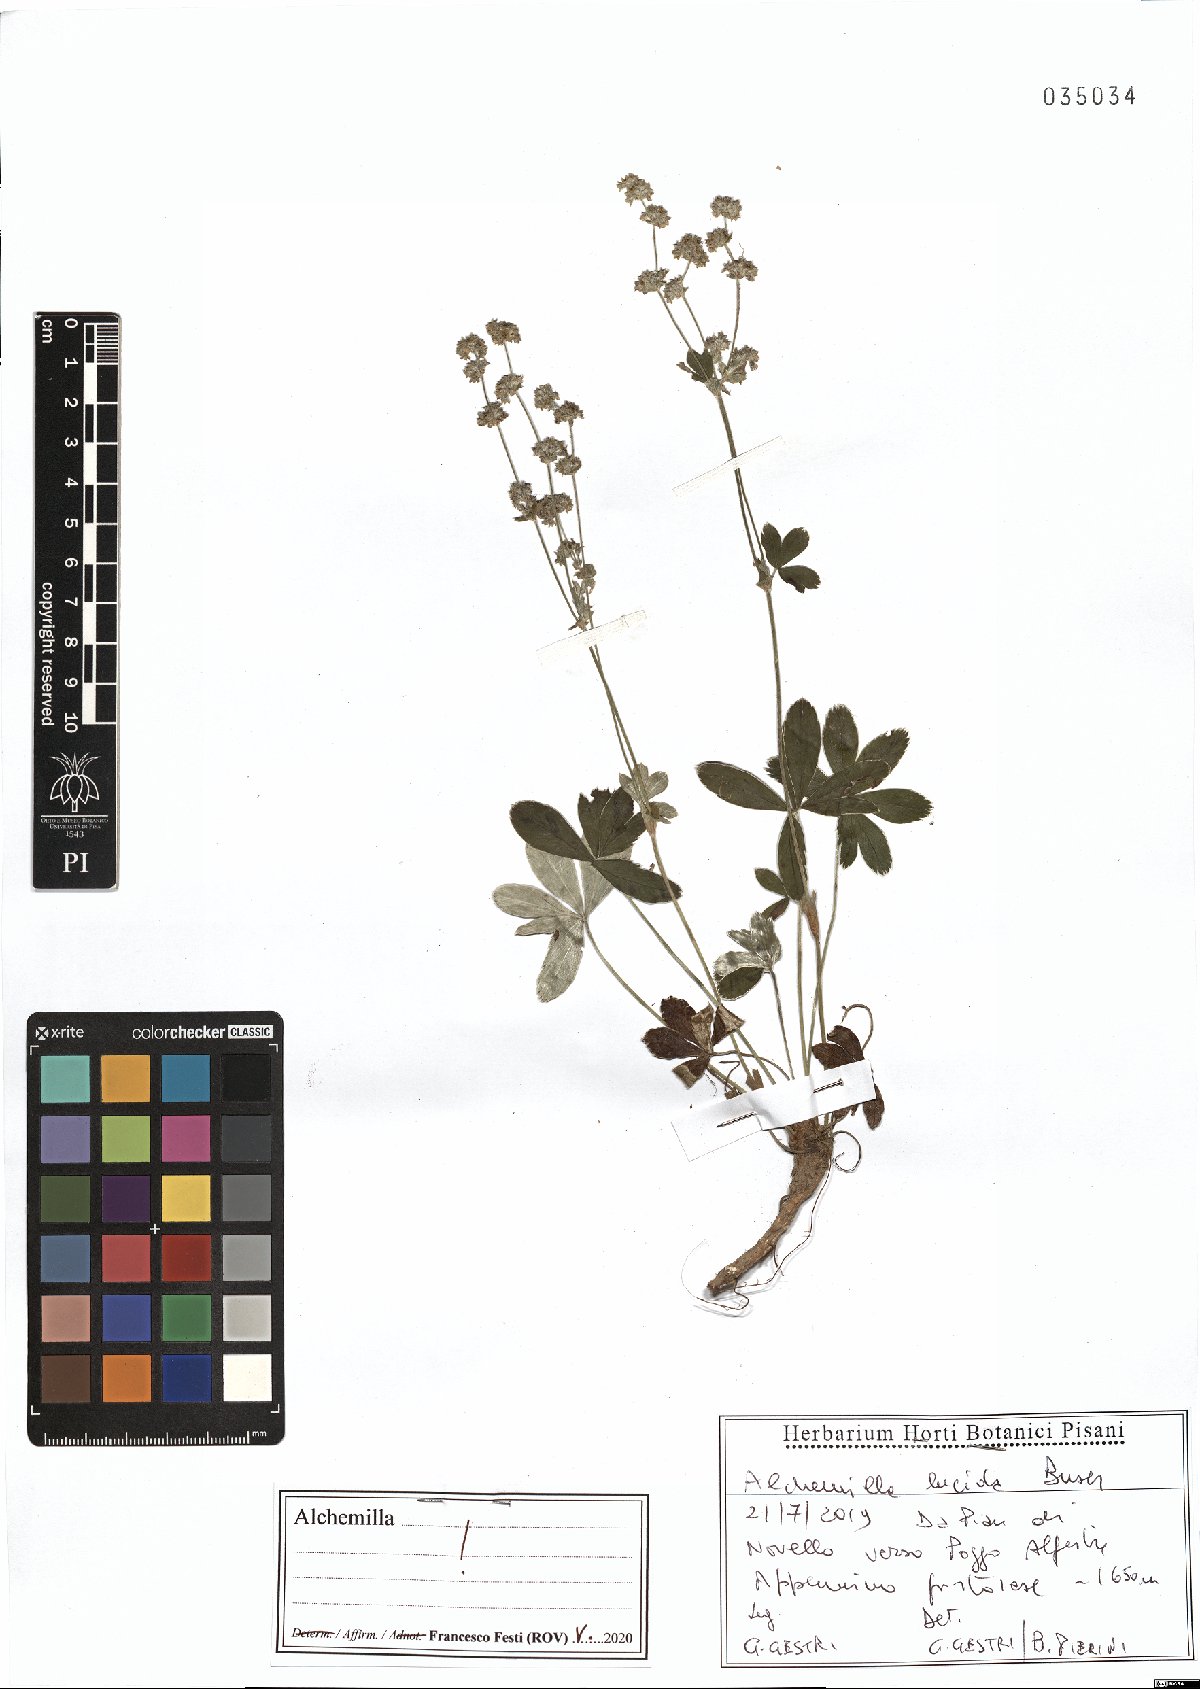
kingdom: Plantae
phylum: Tracheophyta
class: Magnoliopsida
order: Rosales
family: Rosaceae
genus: Alchemilla
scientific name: Alchemilla lucida
